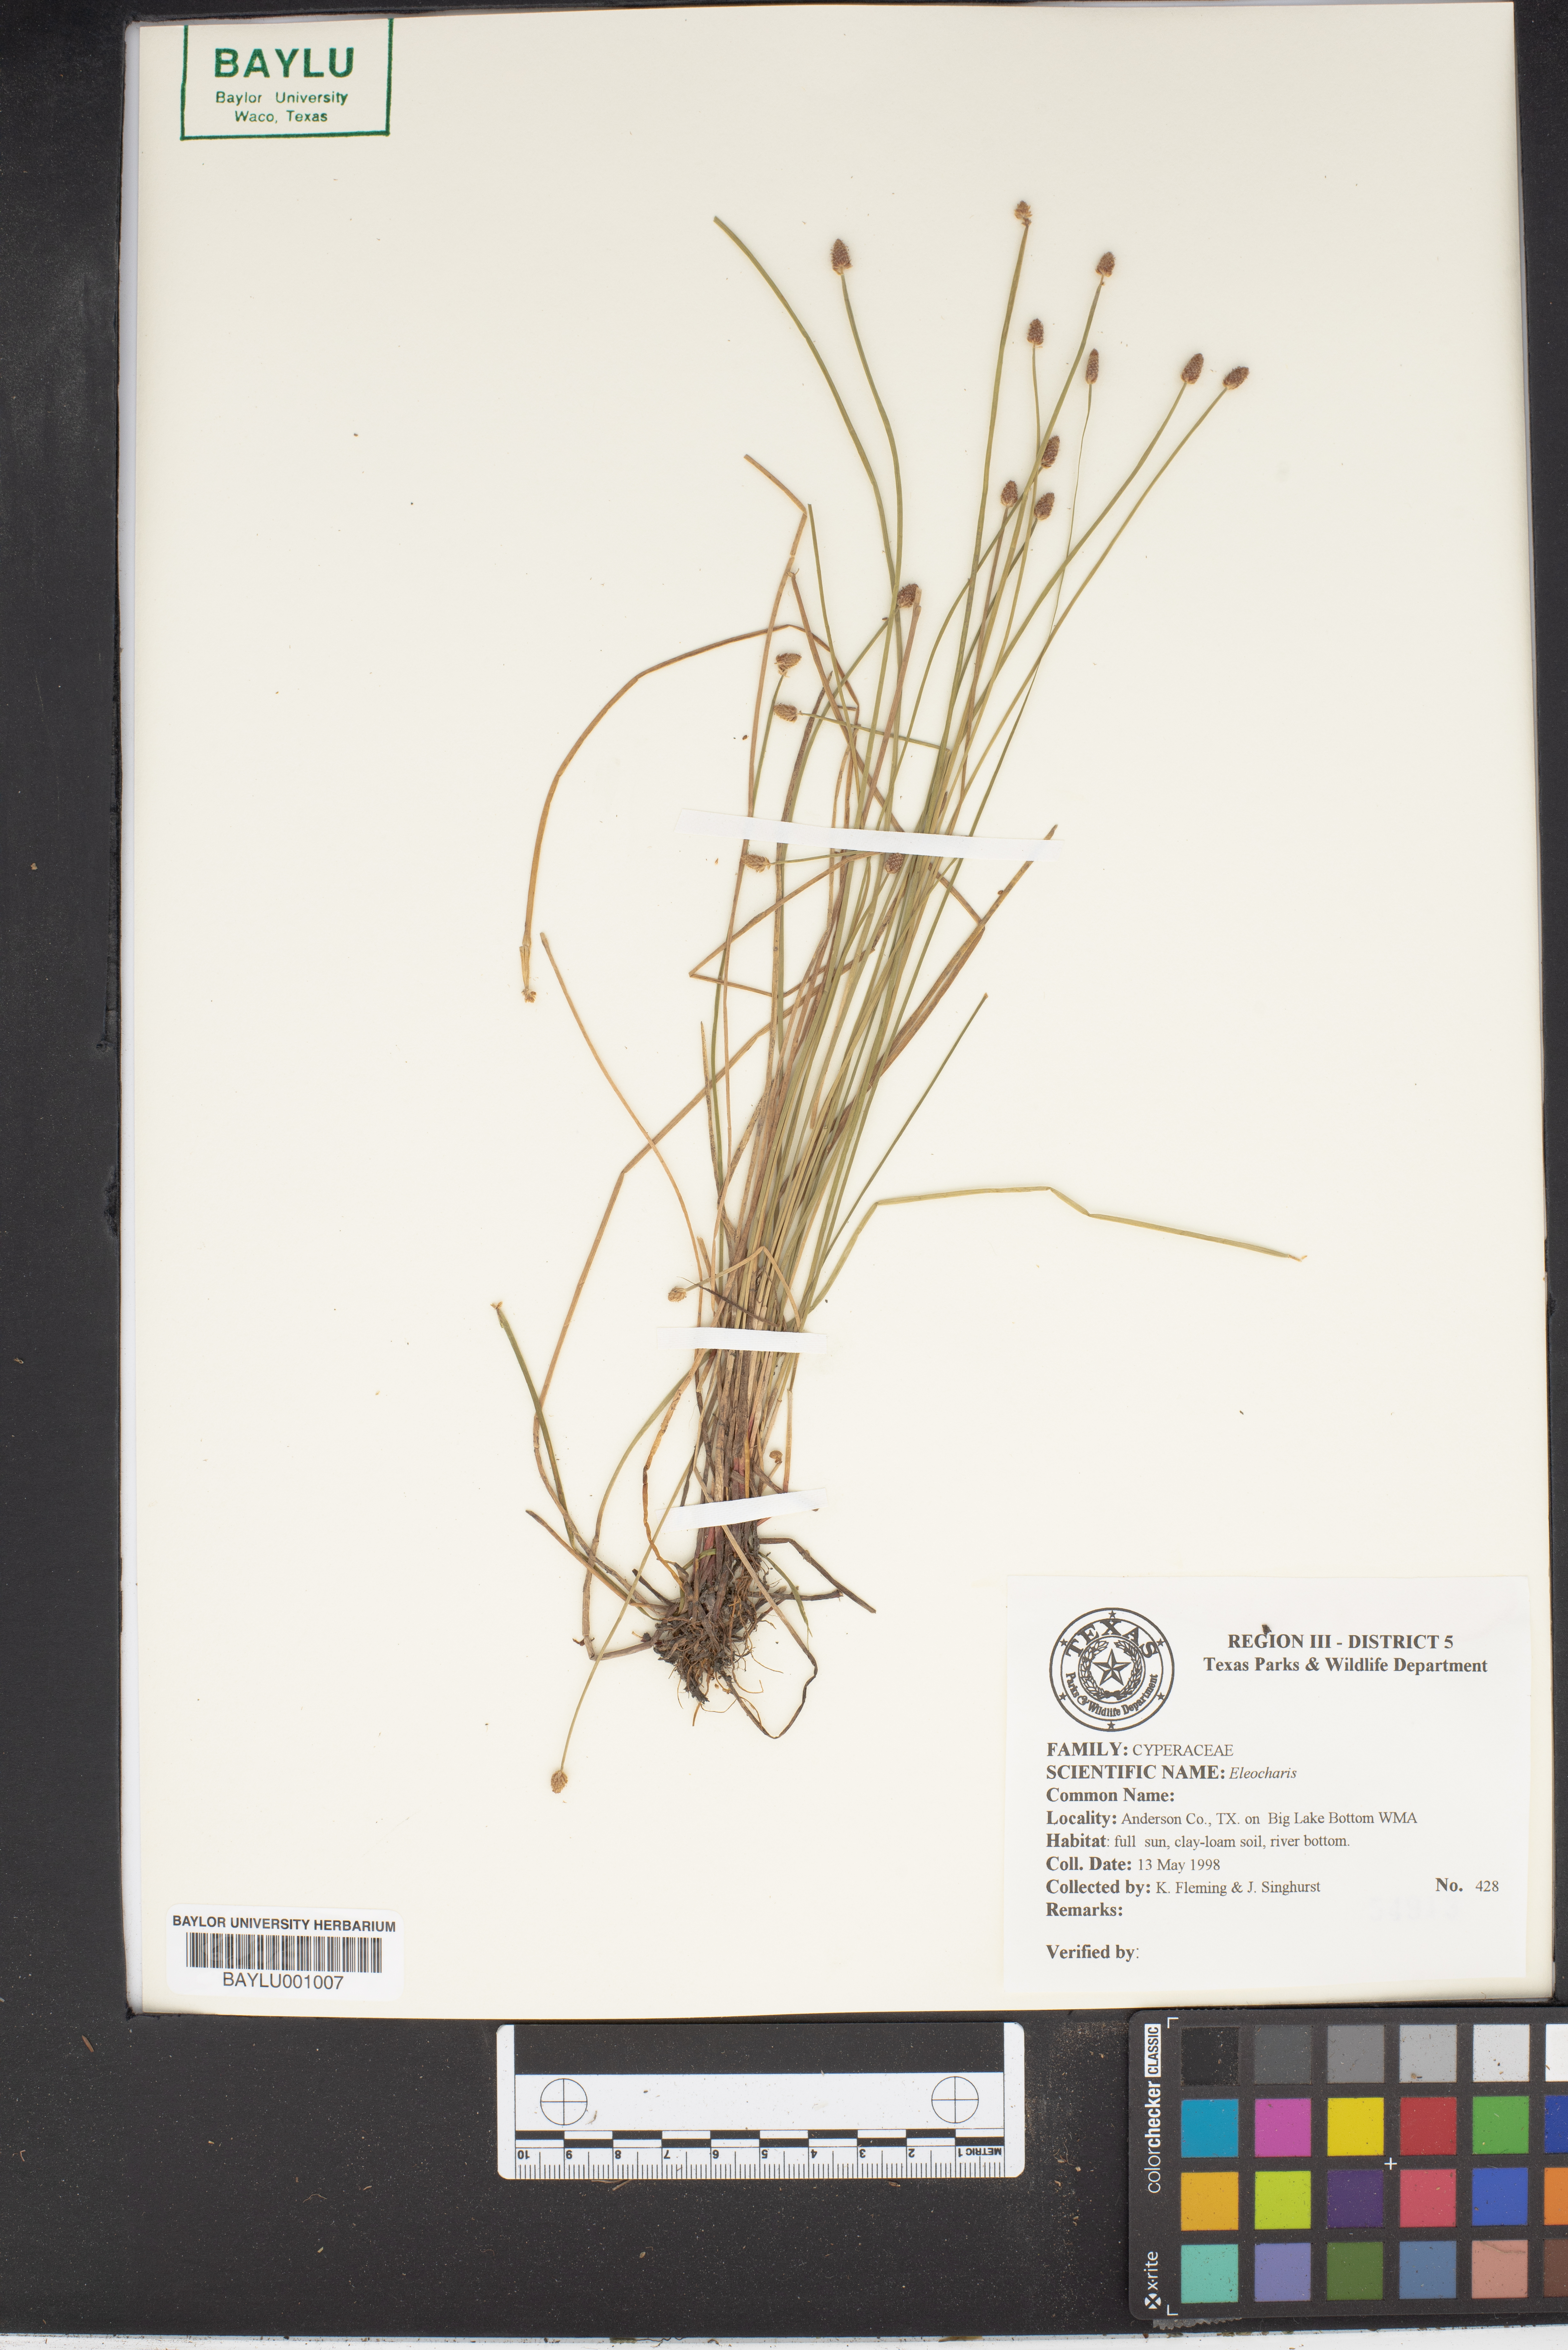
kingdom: Plantae
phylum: Tracheophyta
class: Liliopsida
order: Poales
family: Cyperaceae
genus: Eleocharis
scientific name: Eleocharis
